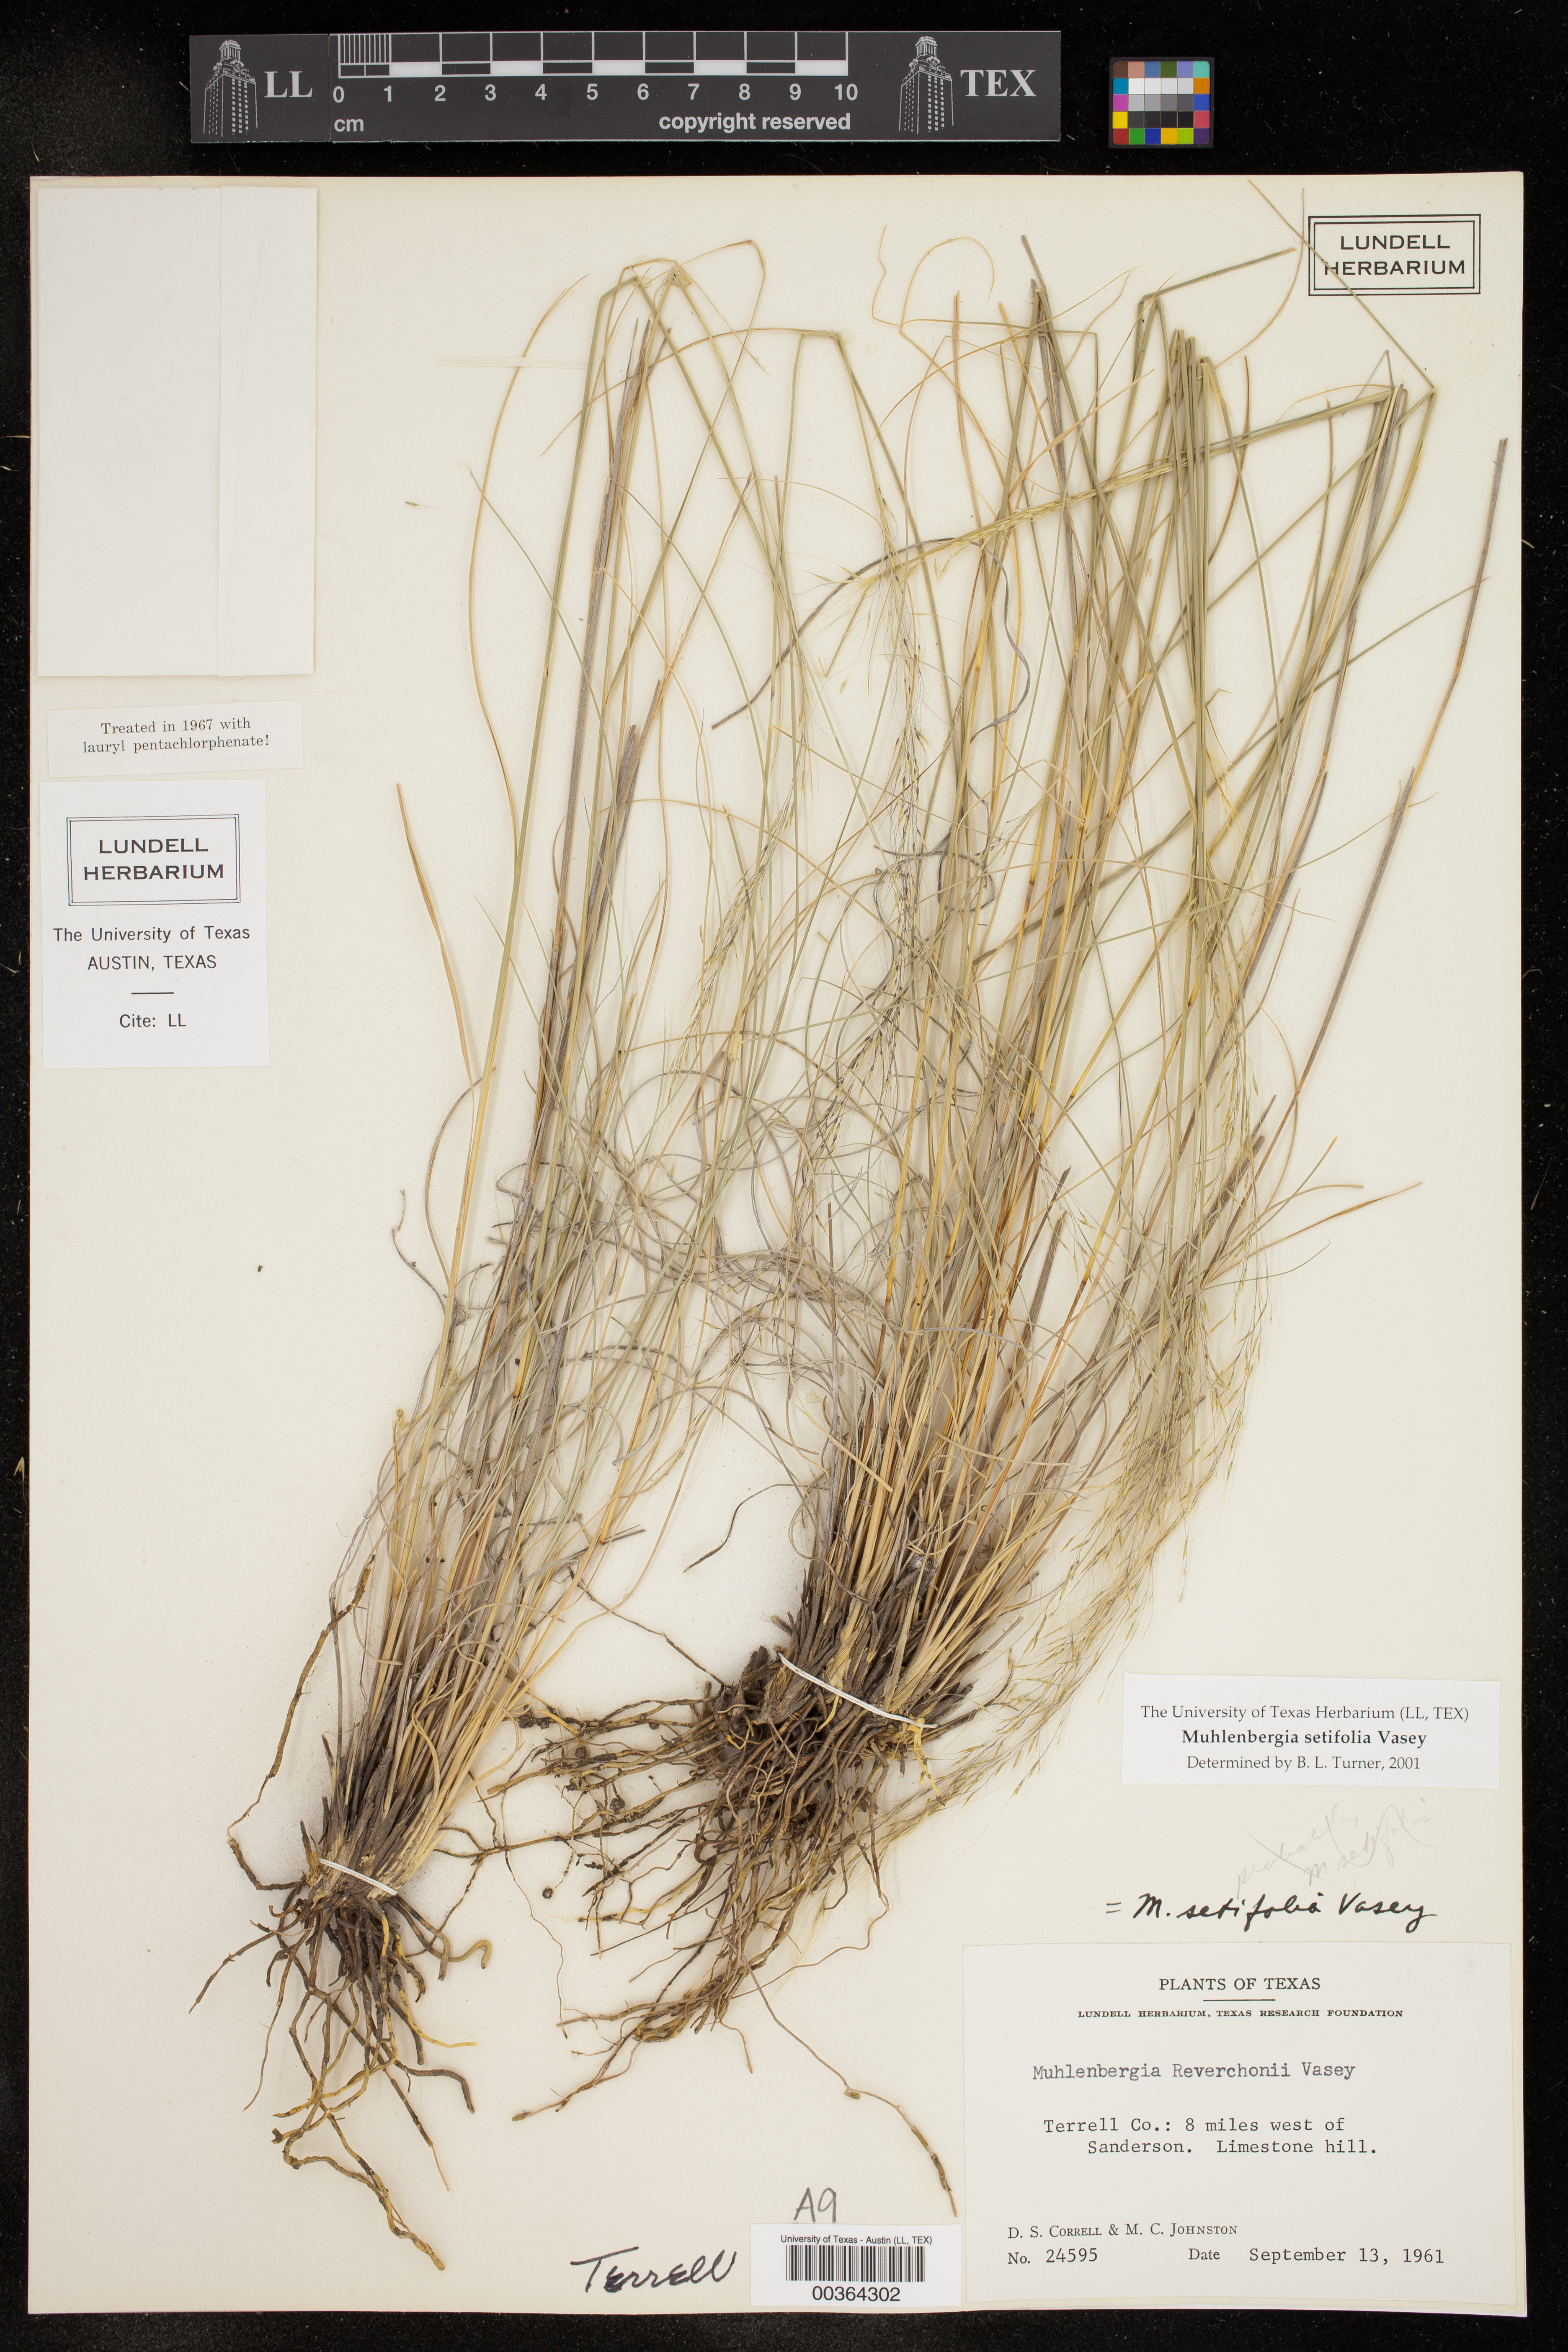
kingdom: Plantae
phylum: Tracheophyta
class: Liliopsida
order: Poales
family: Poaceae
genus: Muhlenbergia
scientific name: Muhlenbergia setifolia
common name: Curly-leaf muhly
